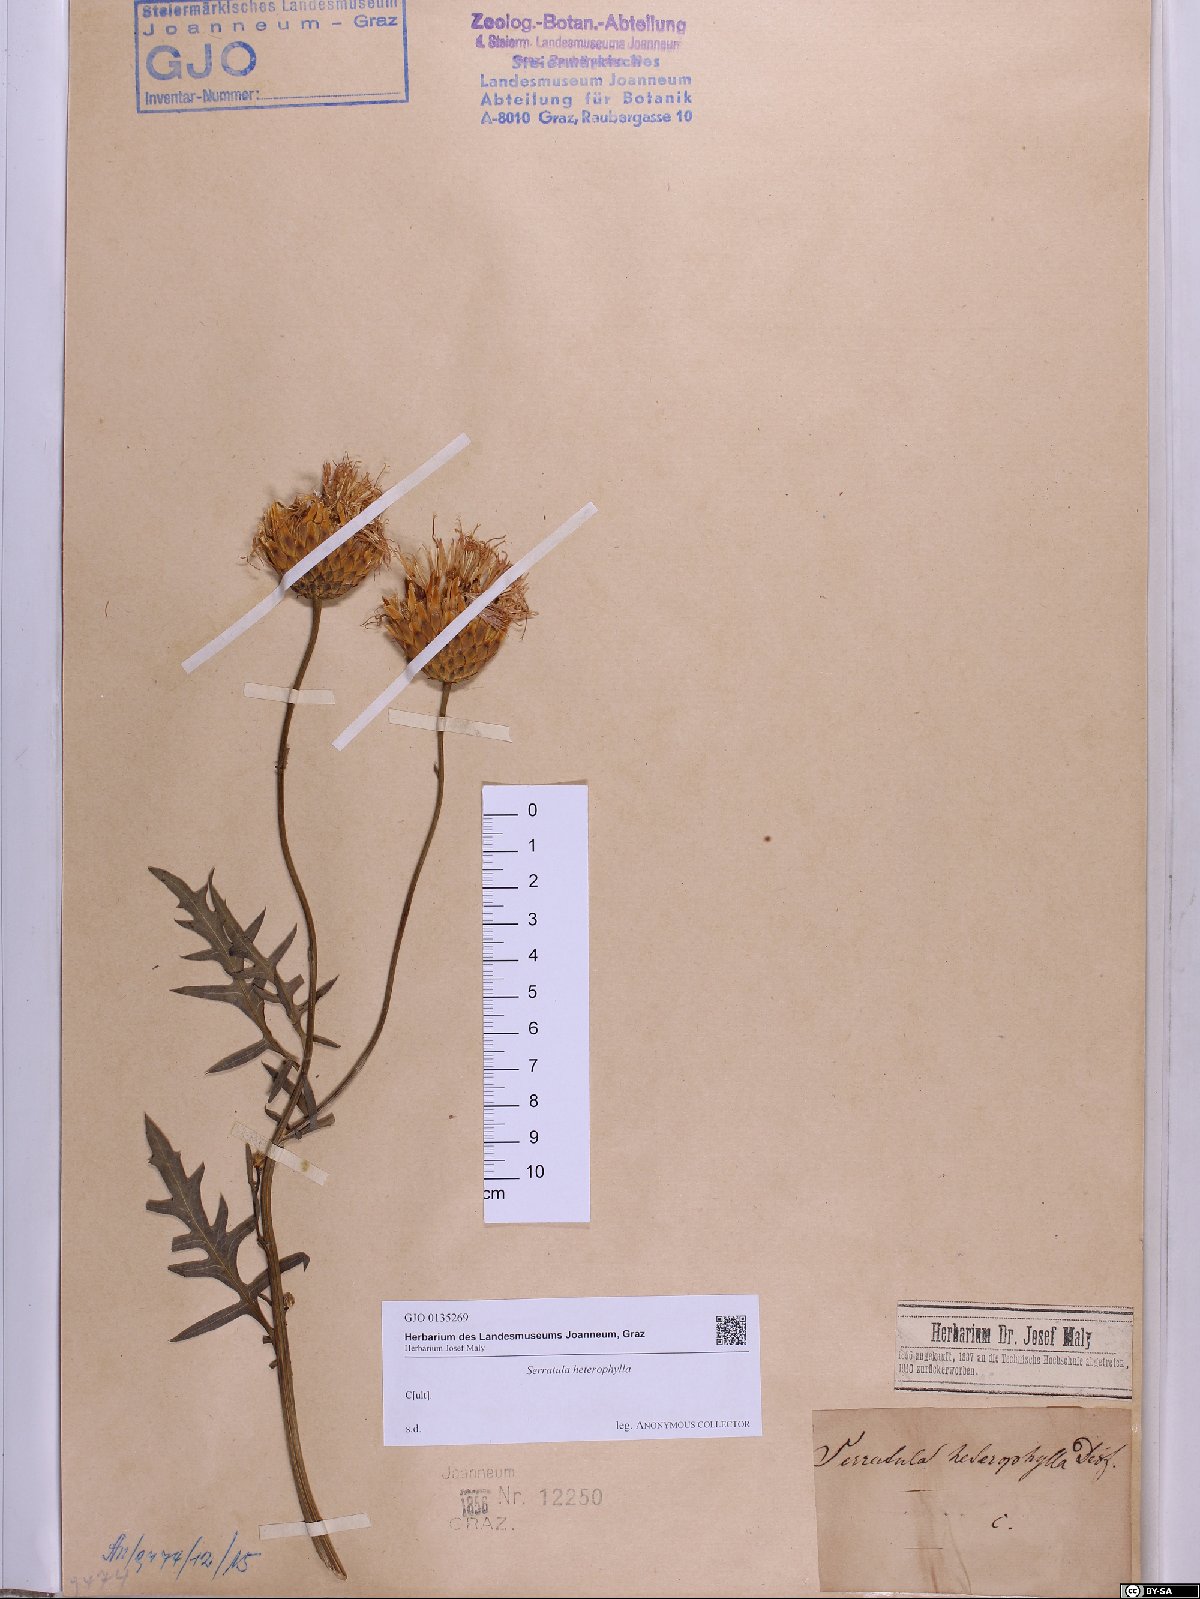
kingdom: Plantae
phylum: Tracheophyta
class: Magnoliopsida
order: Asterales
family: Asteraceae
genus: Serratula
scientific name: Serratula heterophilla
